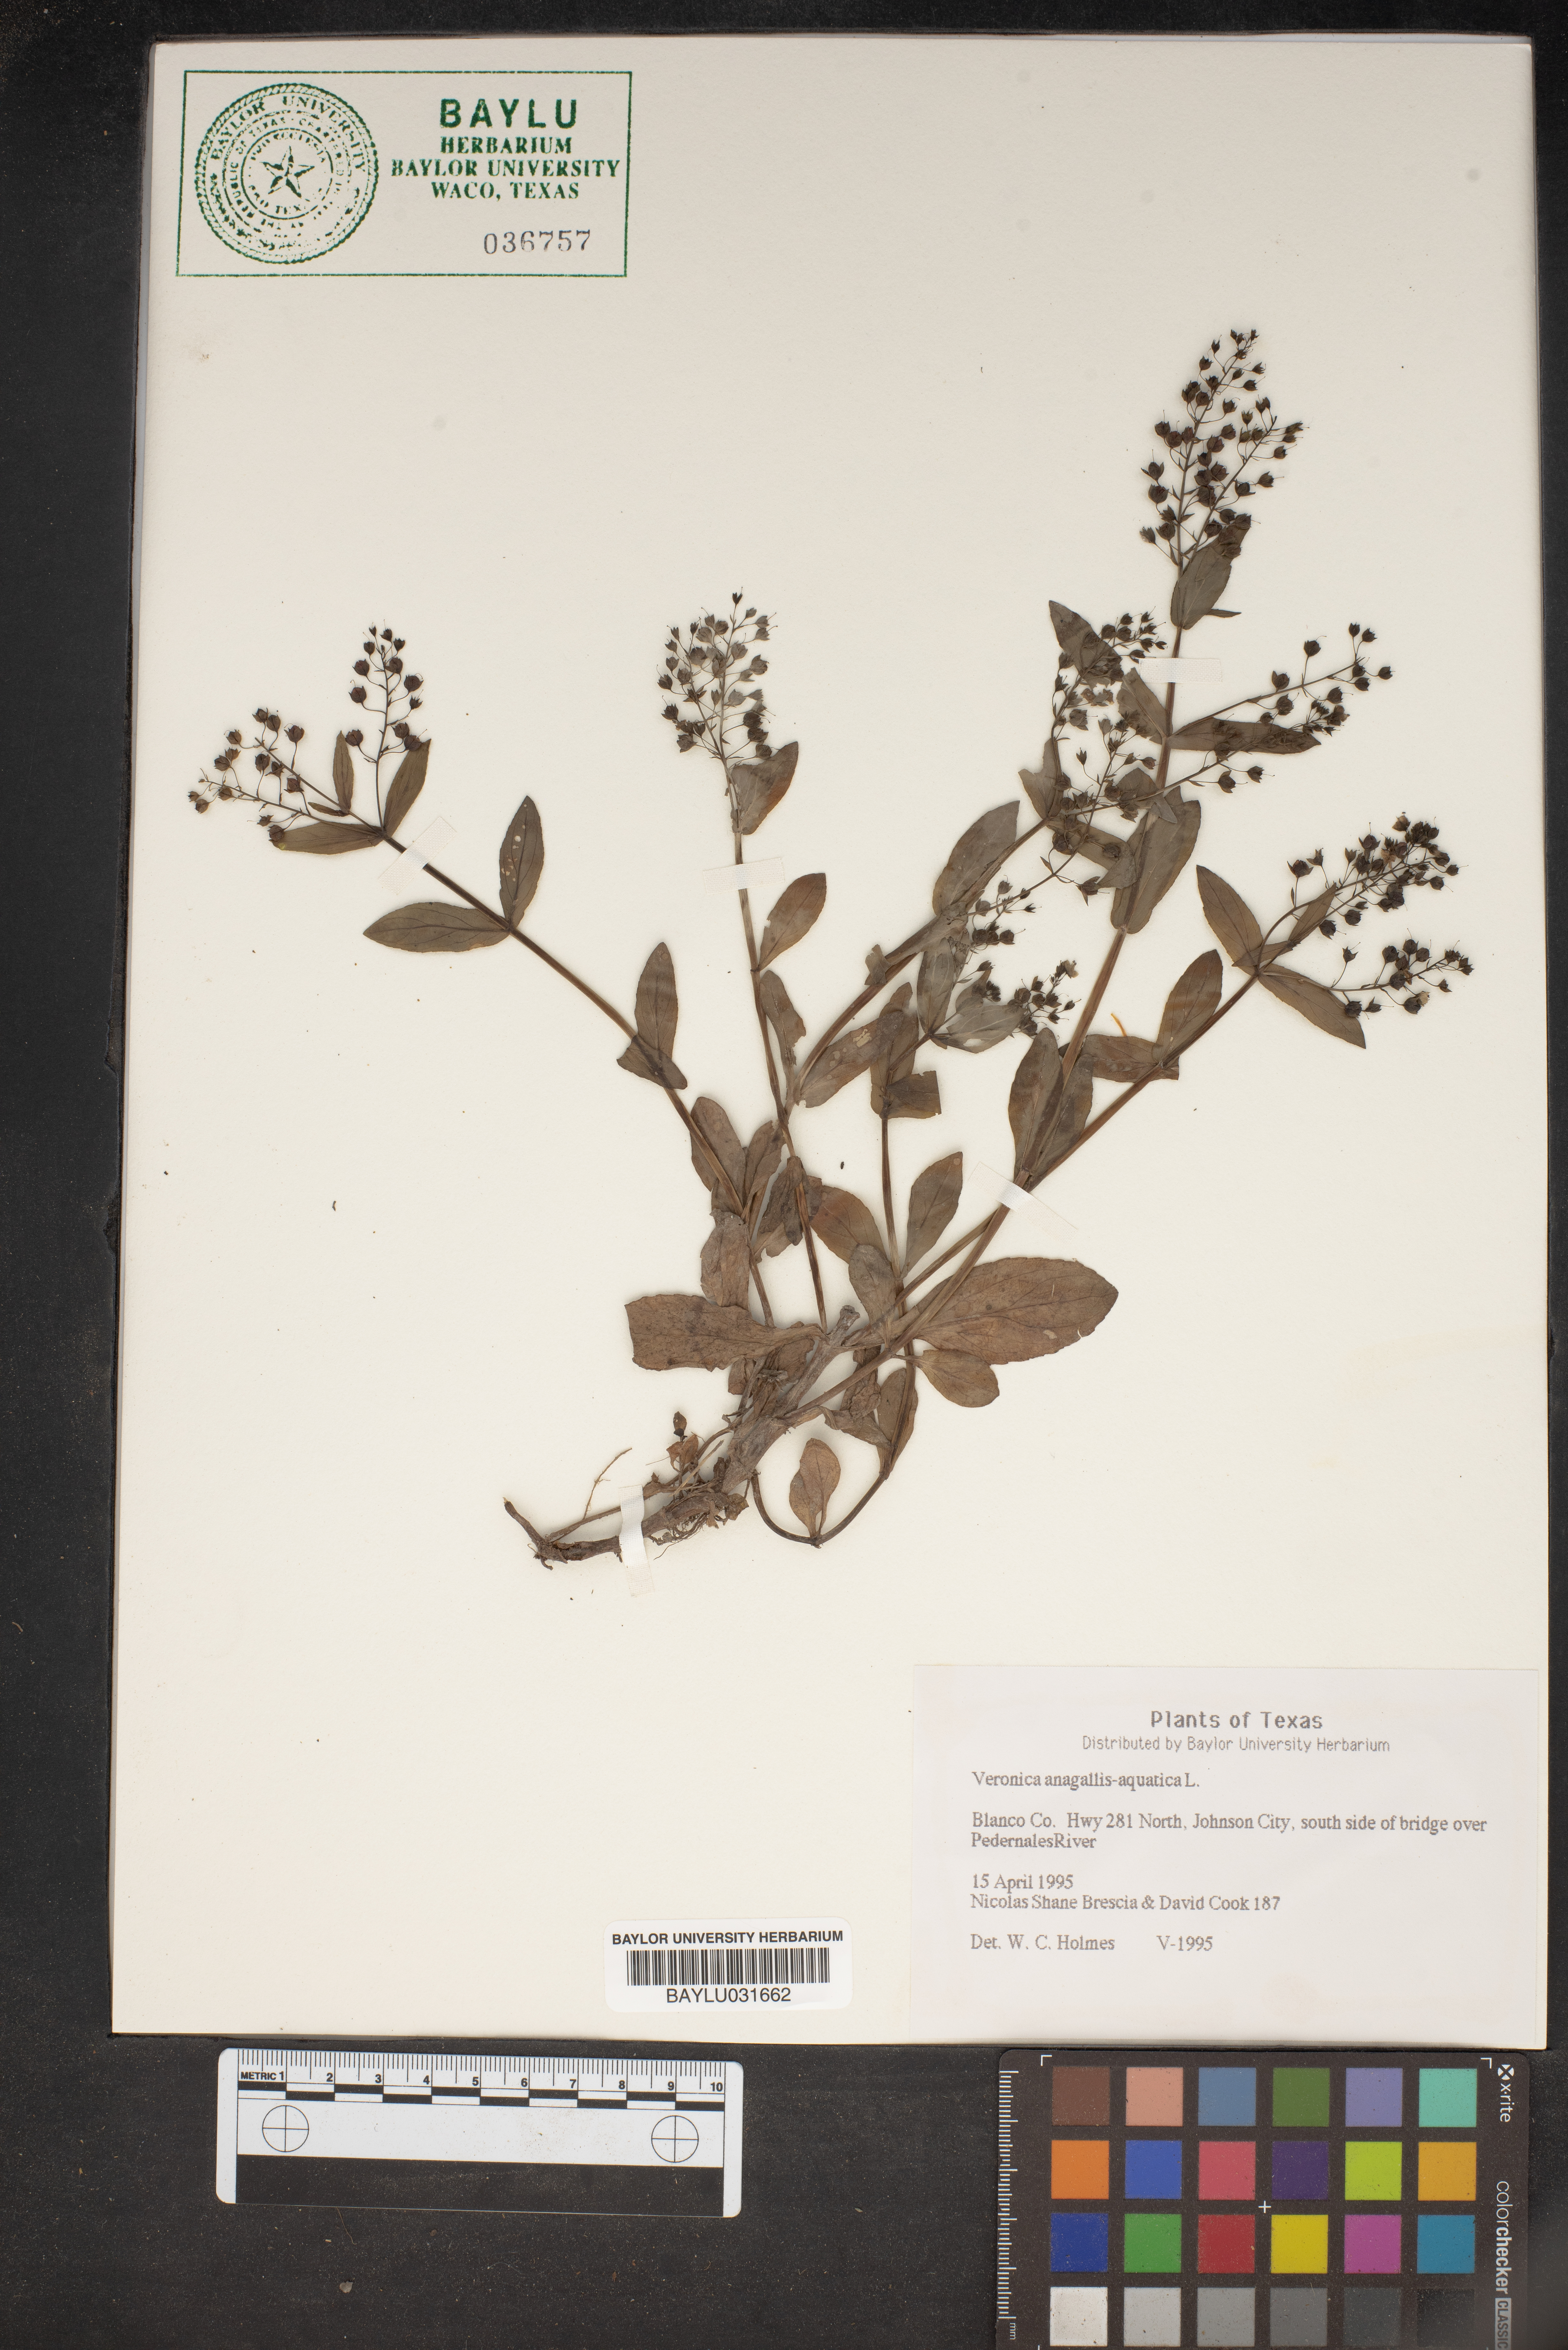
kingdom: Plantae
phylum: Tracheophyta
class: Magnoliopsida
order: Lamiales
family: Plantaginaceae
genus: Veronica
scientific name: Veronica anagallis-aquatica
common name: Water speedwell
